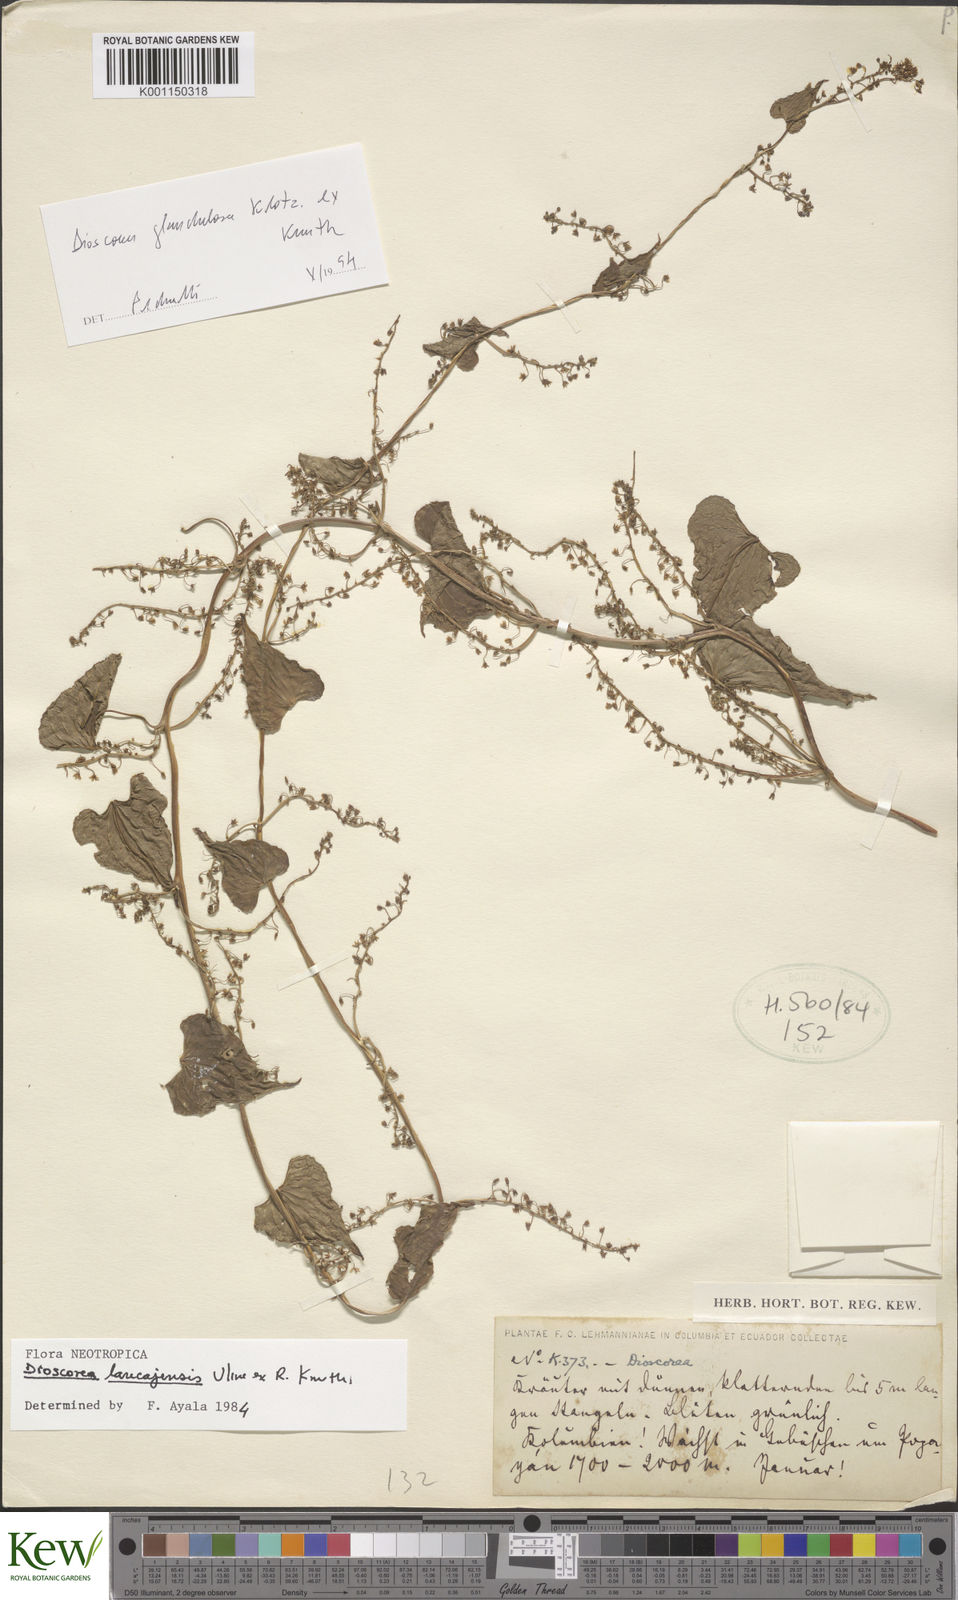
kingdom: Plantae
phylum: Tracheophyta
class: Liliopsida
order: Dioscoreales
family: Dioscoreaceae
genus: Dioscorea
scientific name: Dioscorea piperifolia
